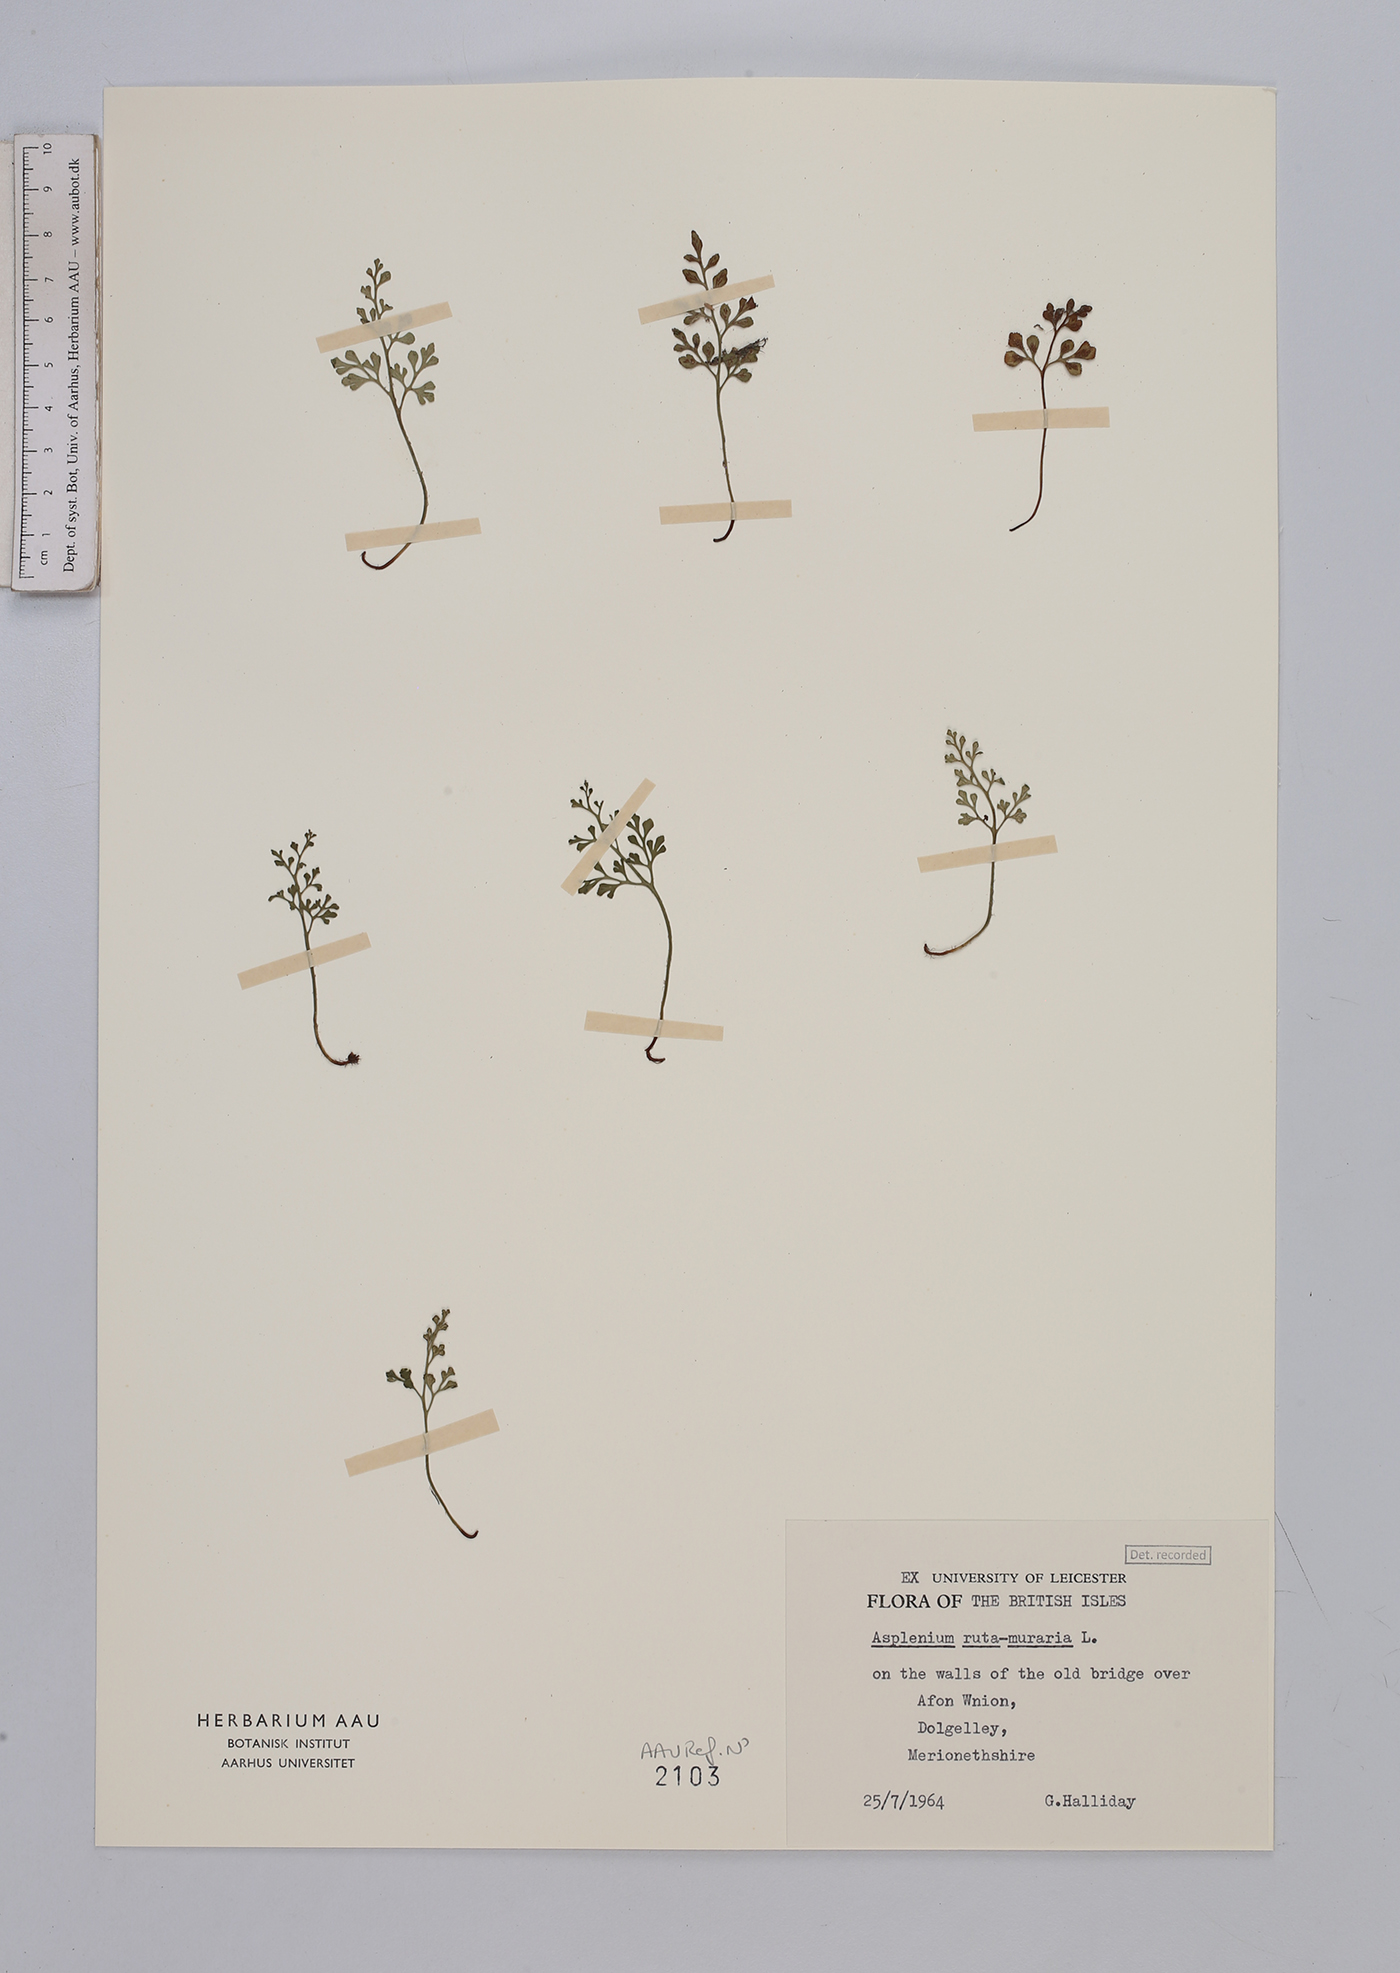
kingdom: Plantae
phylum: Tracheophyta
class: Polypodiopsida
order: Polypodiales
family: Aspleniaceae
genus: Asplenium
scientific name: Asplenium ruta-muraria
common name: Wall-rue
